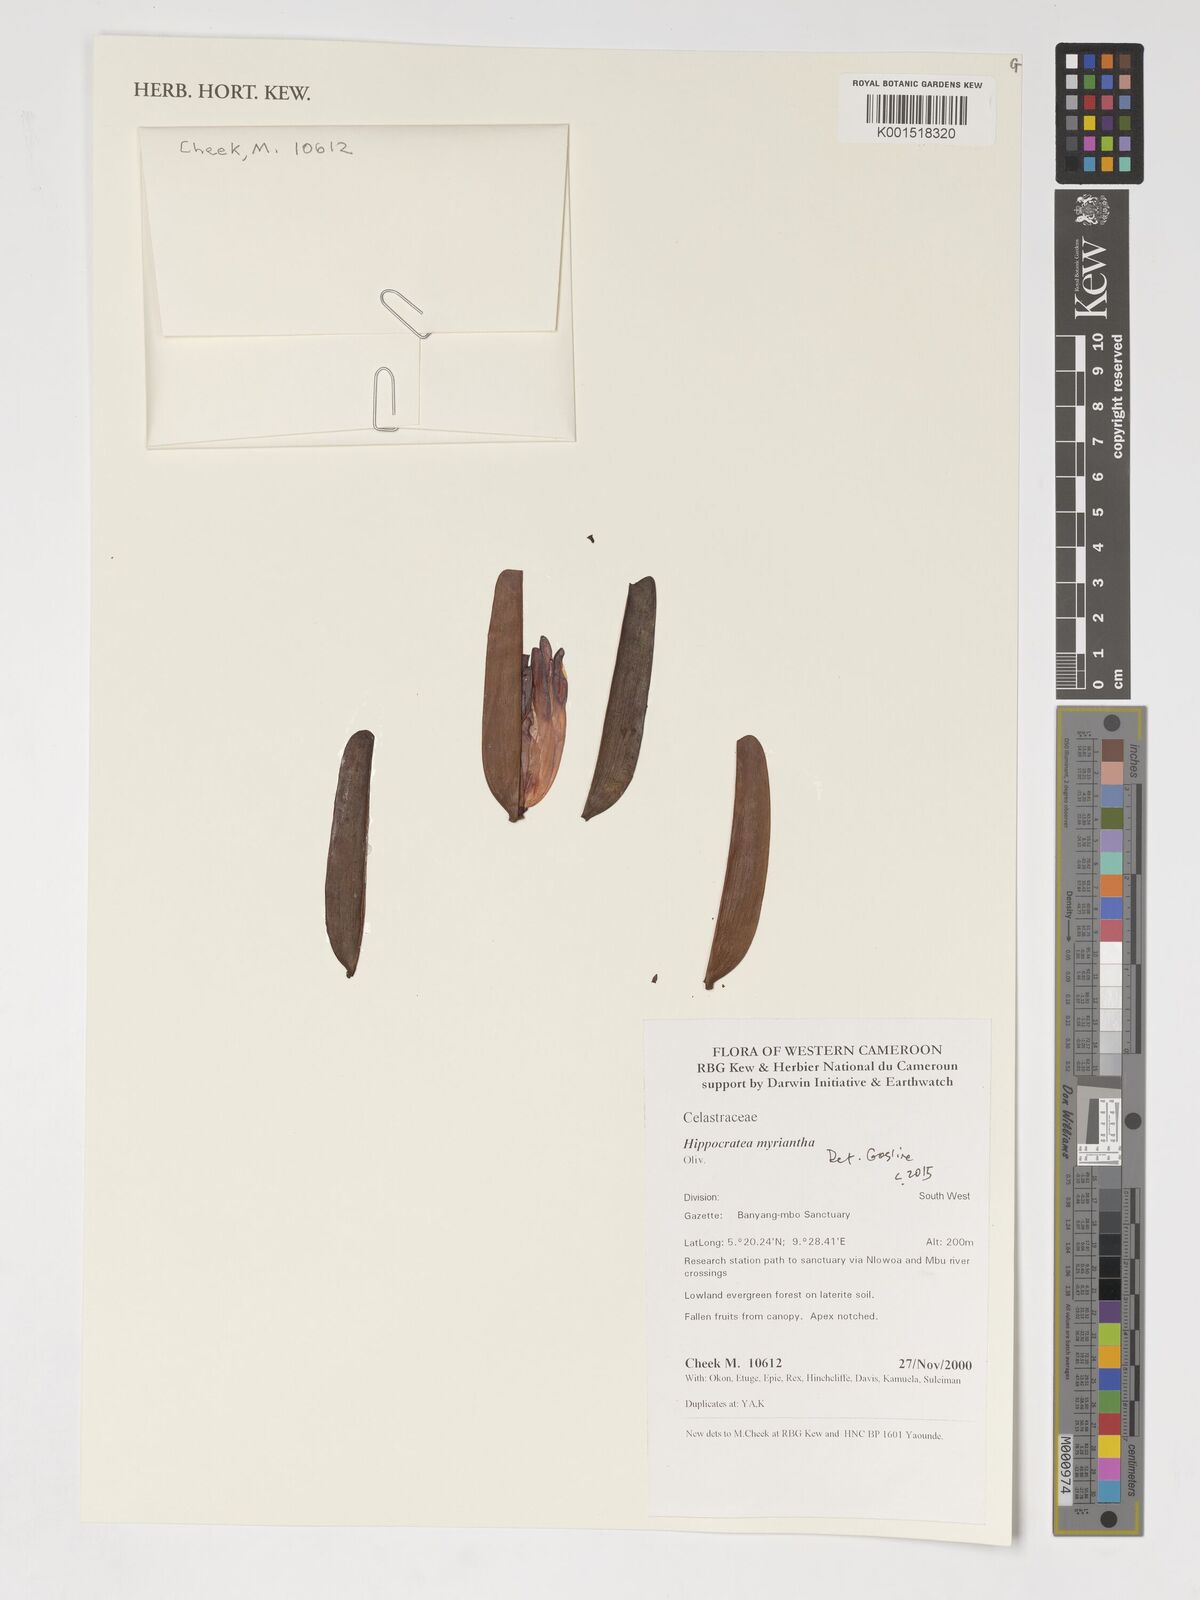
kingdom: Plantae
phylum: Tracheophyta
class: Magnoliopsida
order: Celastrales
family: Celastraceae
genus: Hippocratea
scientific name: Hippocratea myriantha
